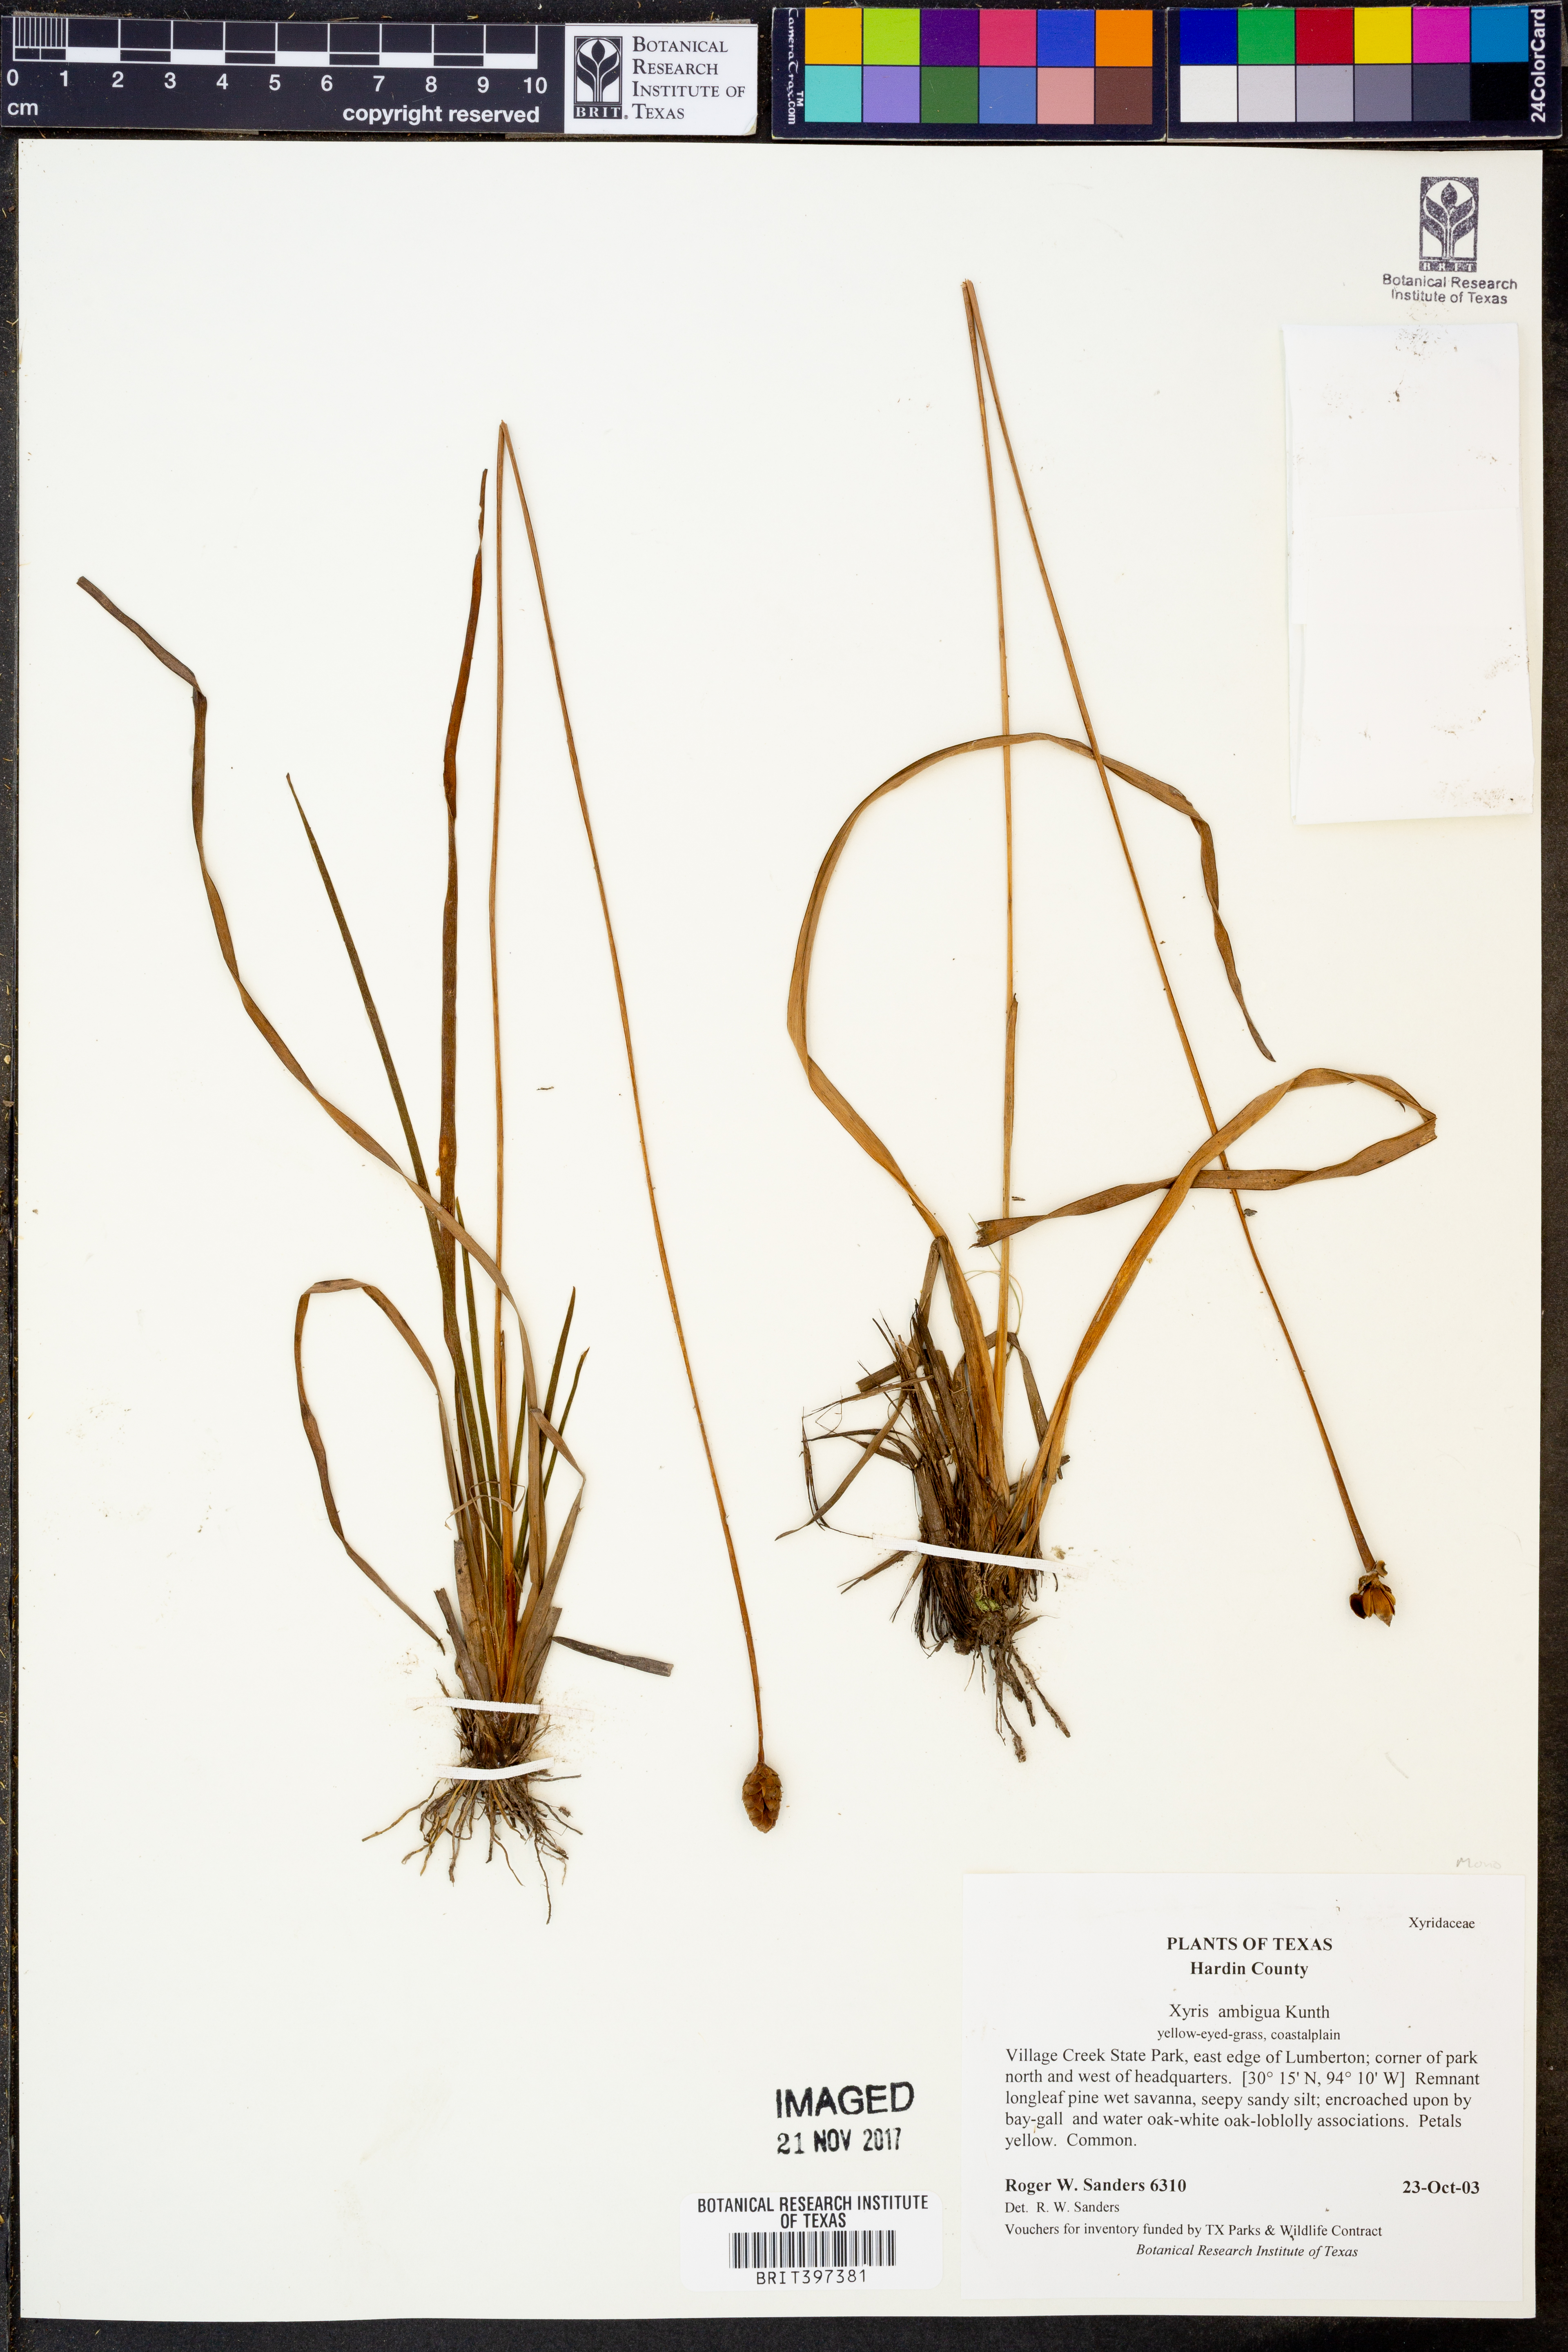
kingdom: Plantae
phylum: Tracheophyta
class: Liliopsida
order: Poales
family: Xyridaceae
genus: Xyris
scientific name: Xyris ambigua
